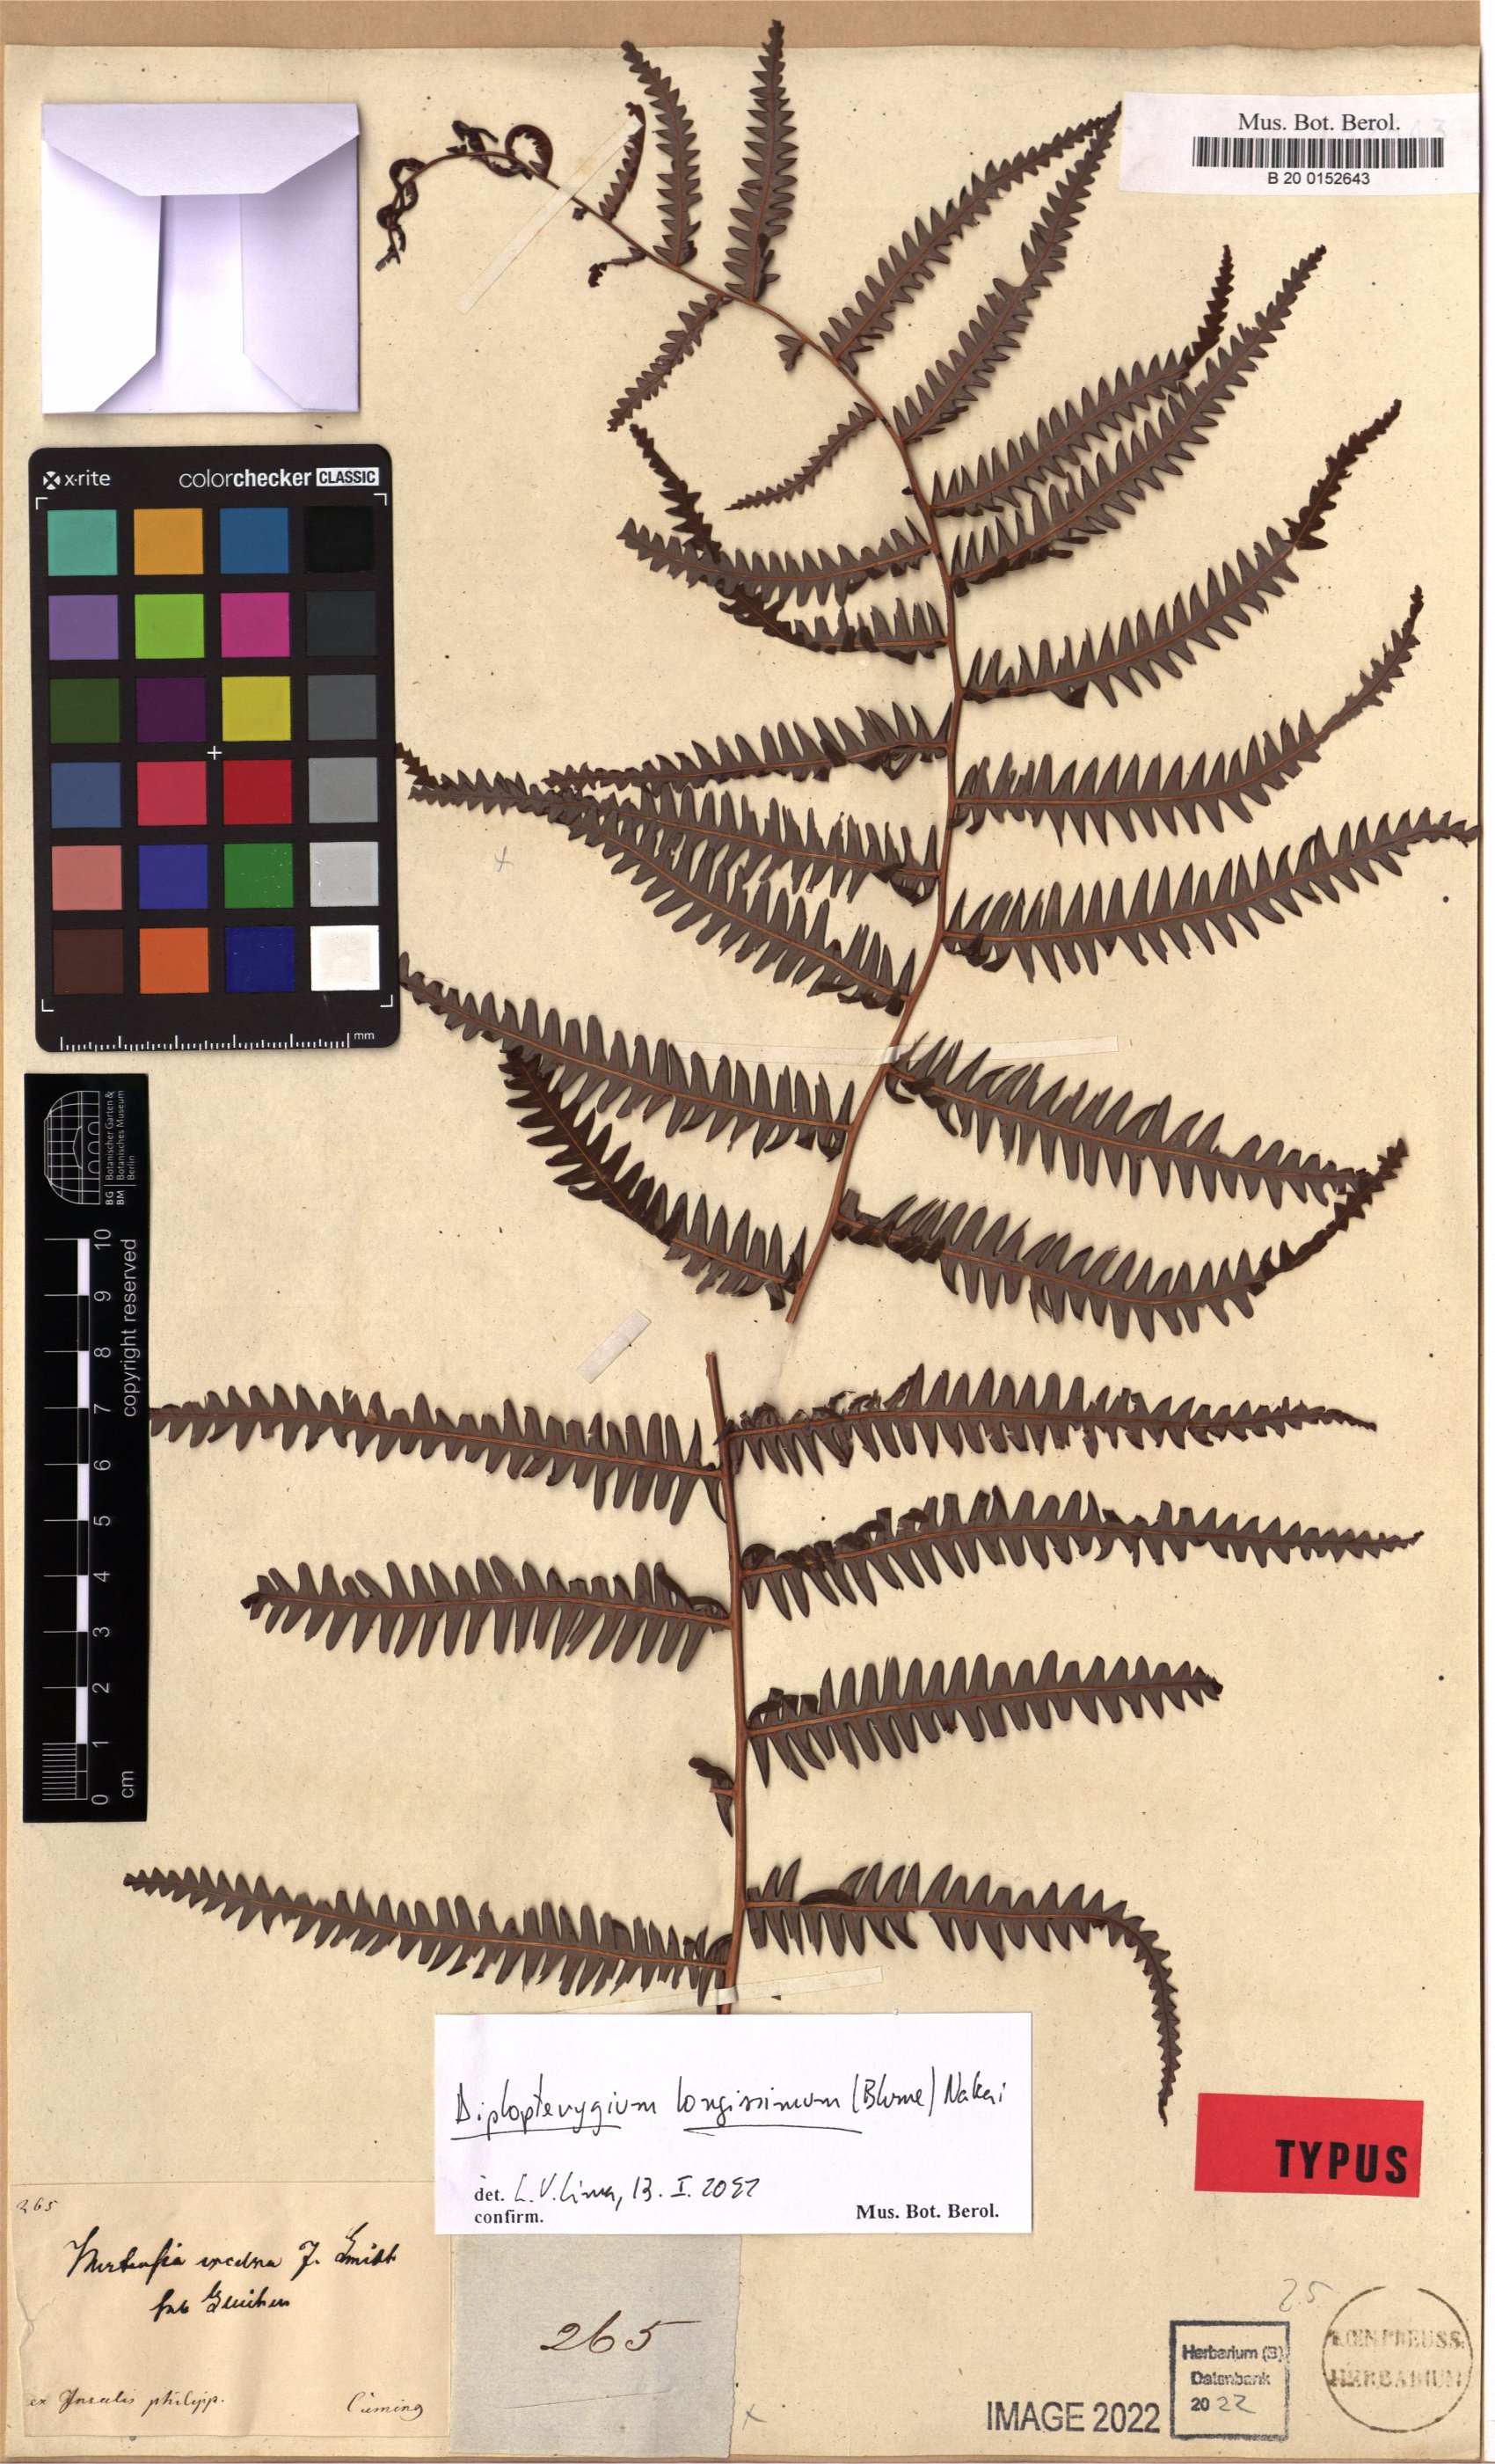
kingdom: Plantae
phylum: Tracheophyta
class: Polypodiopsida
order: Gleicheniales
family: Gleicheniaceae
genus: Diplopterygium
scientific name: Diplopterygium longissimum
